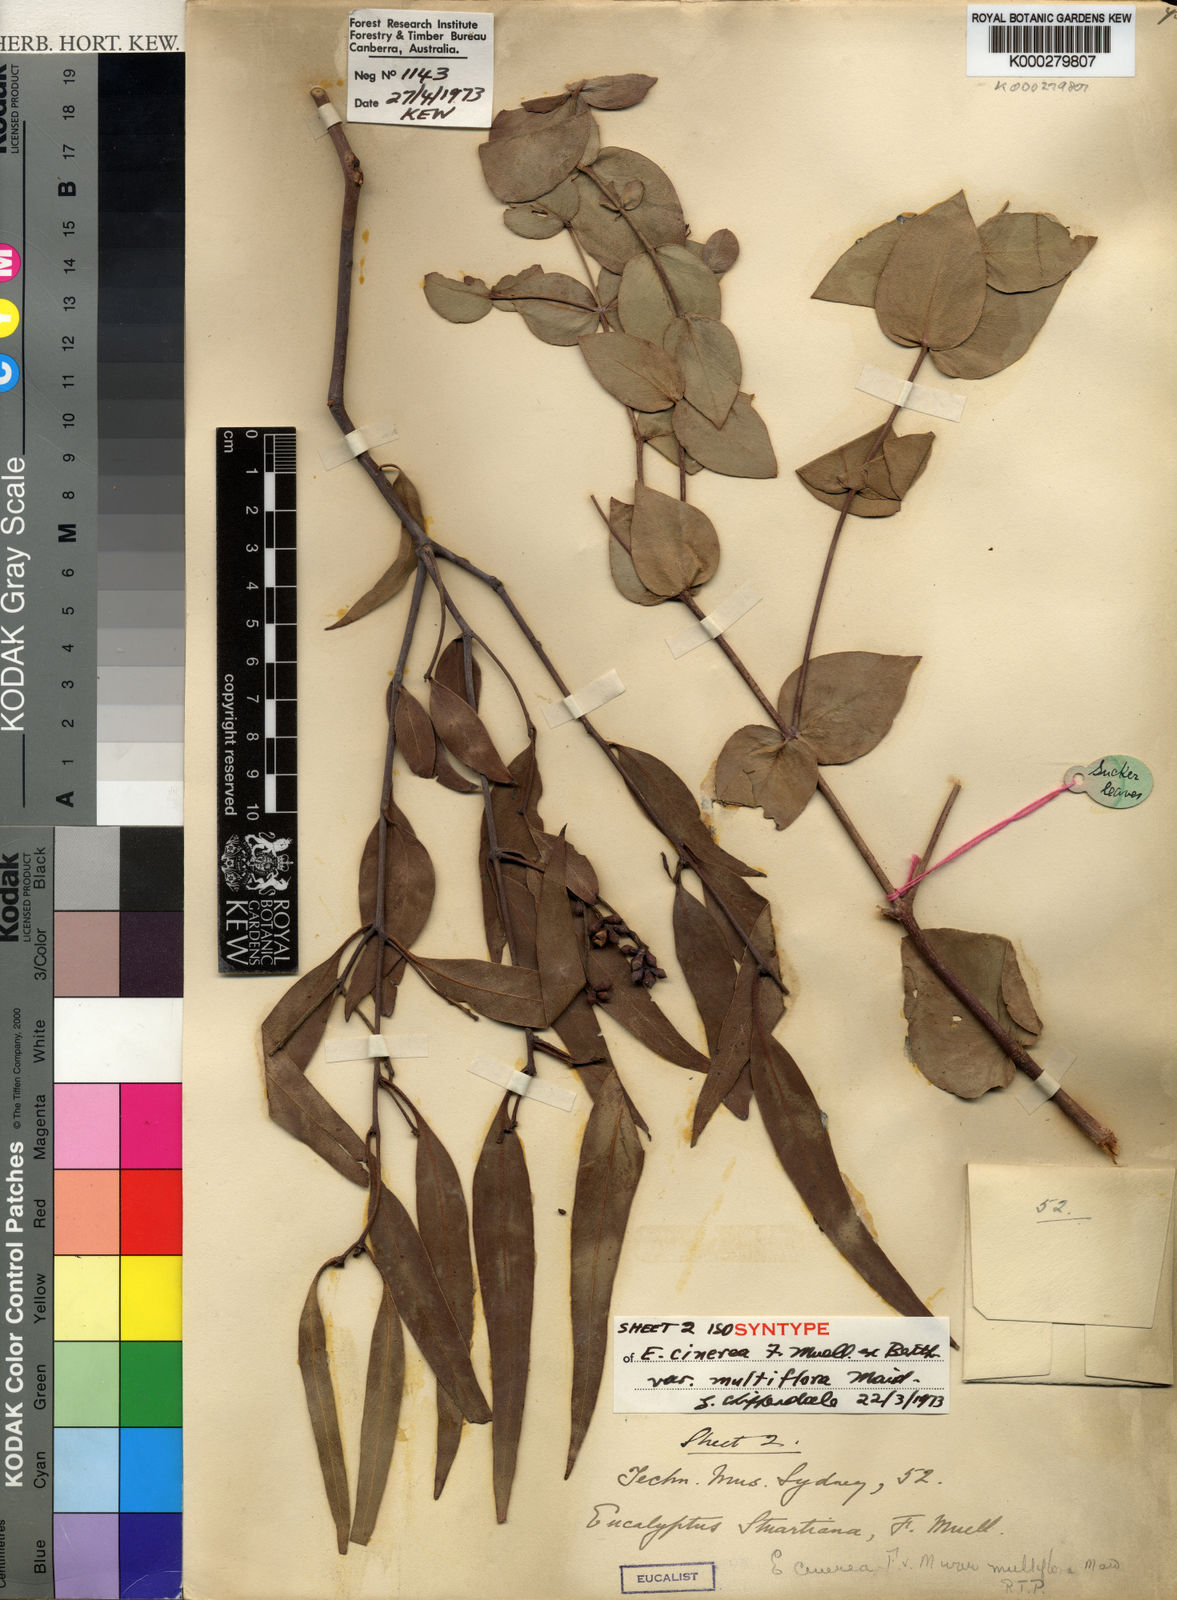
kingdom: Plantae
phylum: Tracheophyta
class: Magnoliopsida
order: Myrtales
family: Myrtaceae
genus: Eucalyptus
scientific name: Eucalyptus cephalocarpa
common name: Mealy stringybark
